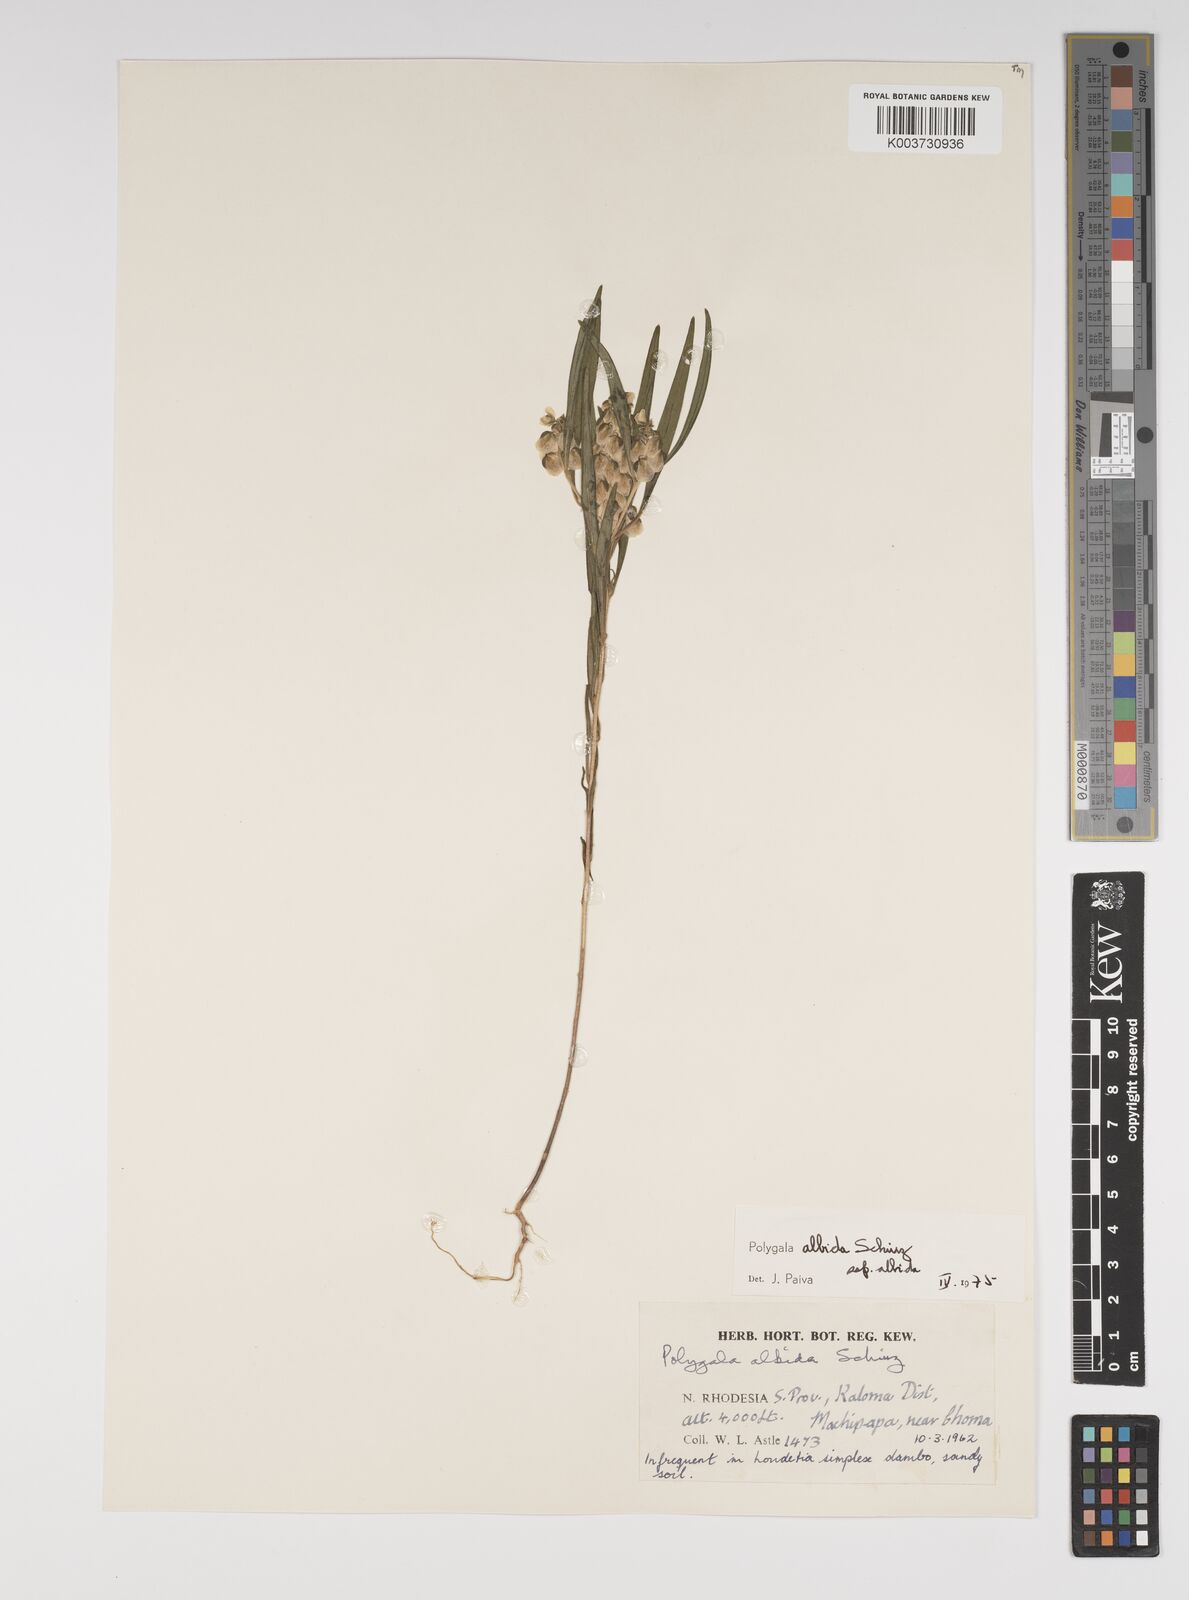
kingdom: Plantae
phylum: Tracheophyta
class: Magnoliopsida
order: Fabales
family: Polygalaceae
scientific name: Polygalaceae
